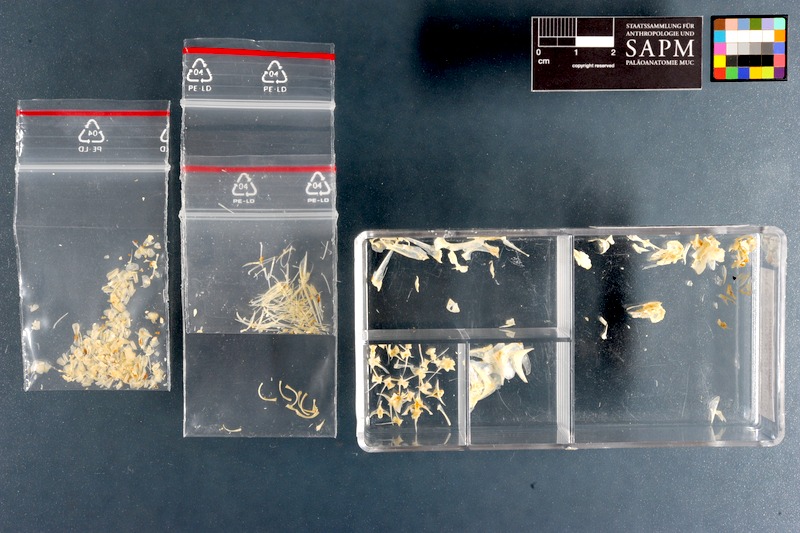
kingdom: Animalia
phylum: Chordata
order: Mugiliformes
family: Mugilidae
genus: Mugil
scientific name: Mugil cephalus
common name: Grey mullet
